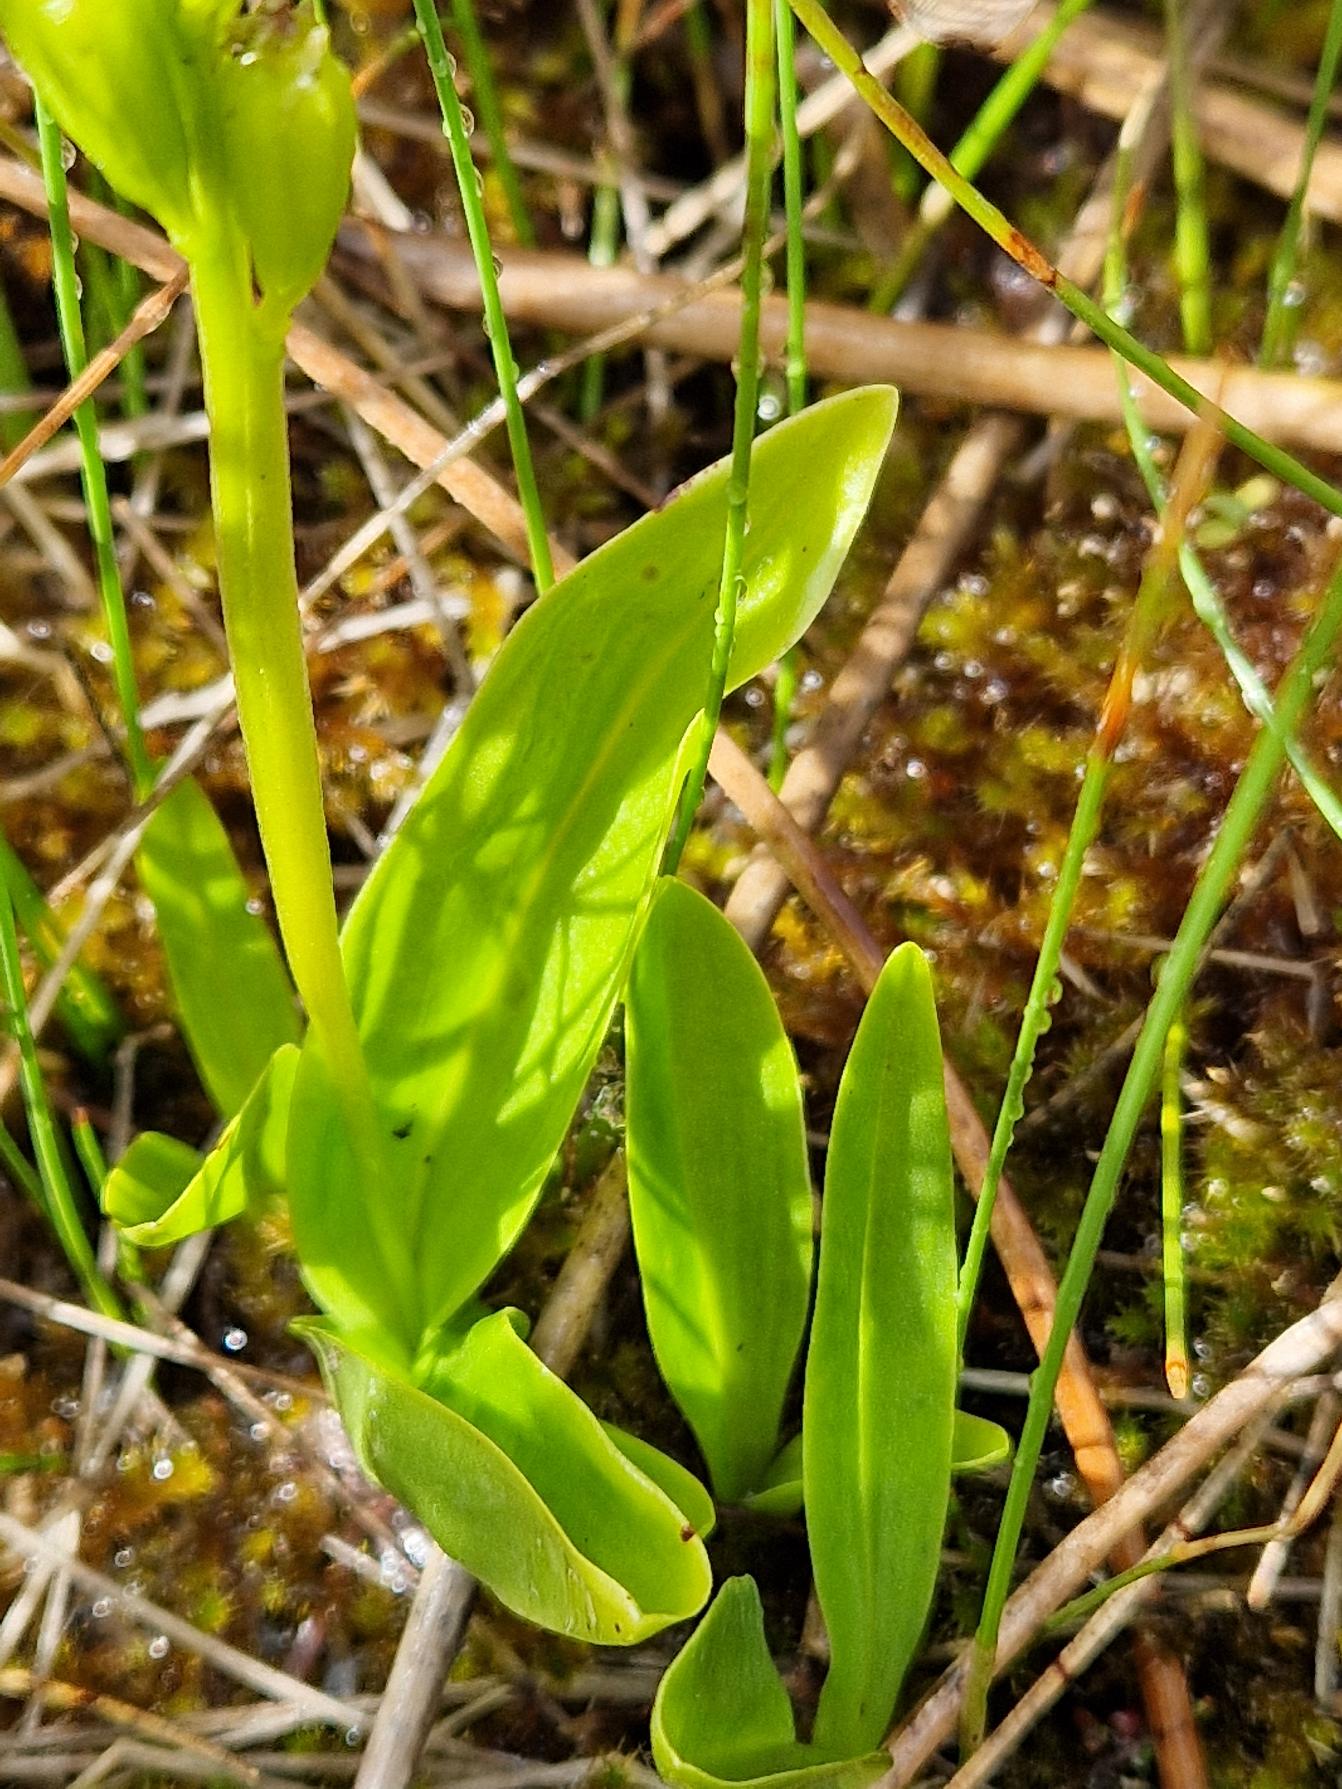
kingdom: Animalia
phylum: Arthropoda
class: Insecta
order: Coleoptera
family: Curculionidae
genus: Liparis
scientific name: Liparis loeselii
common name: Mygblomst
